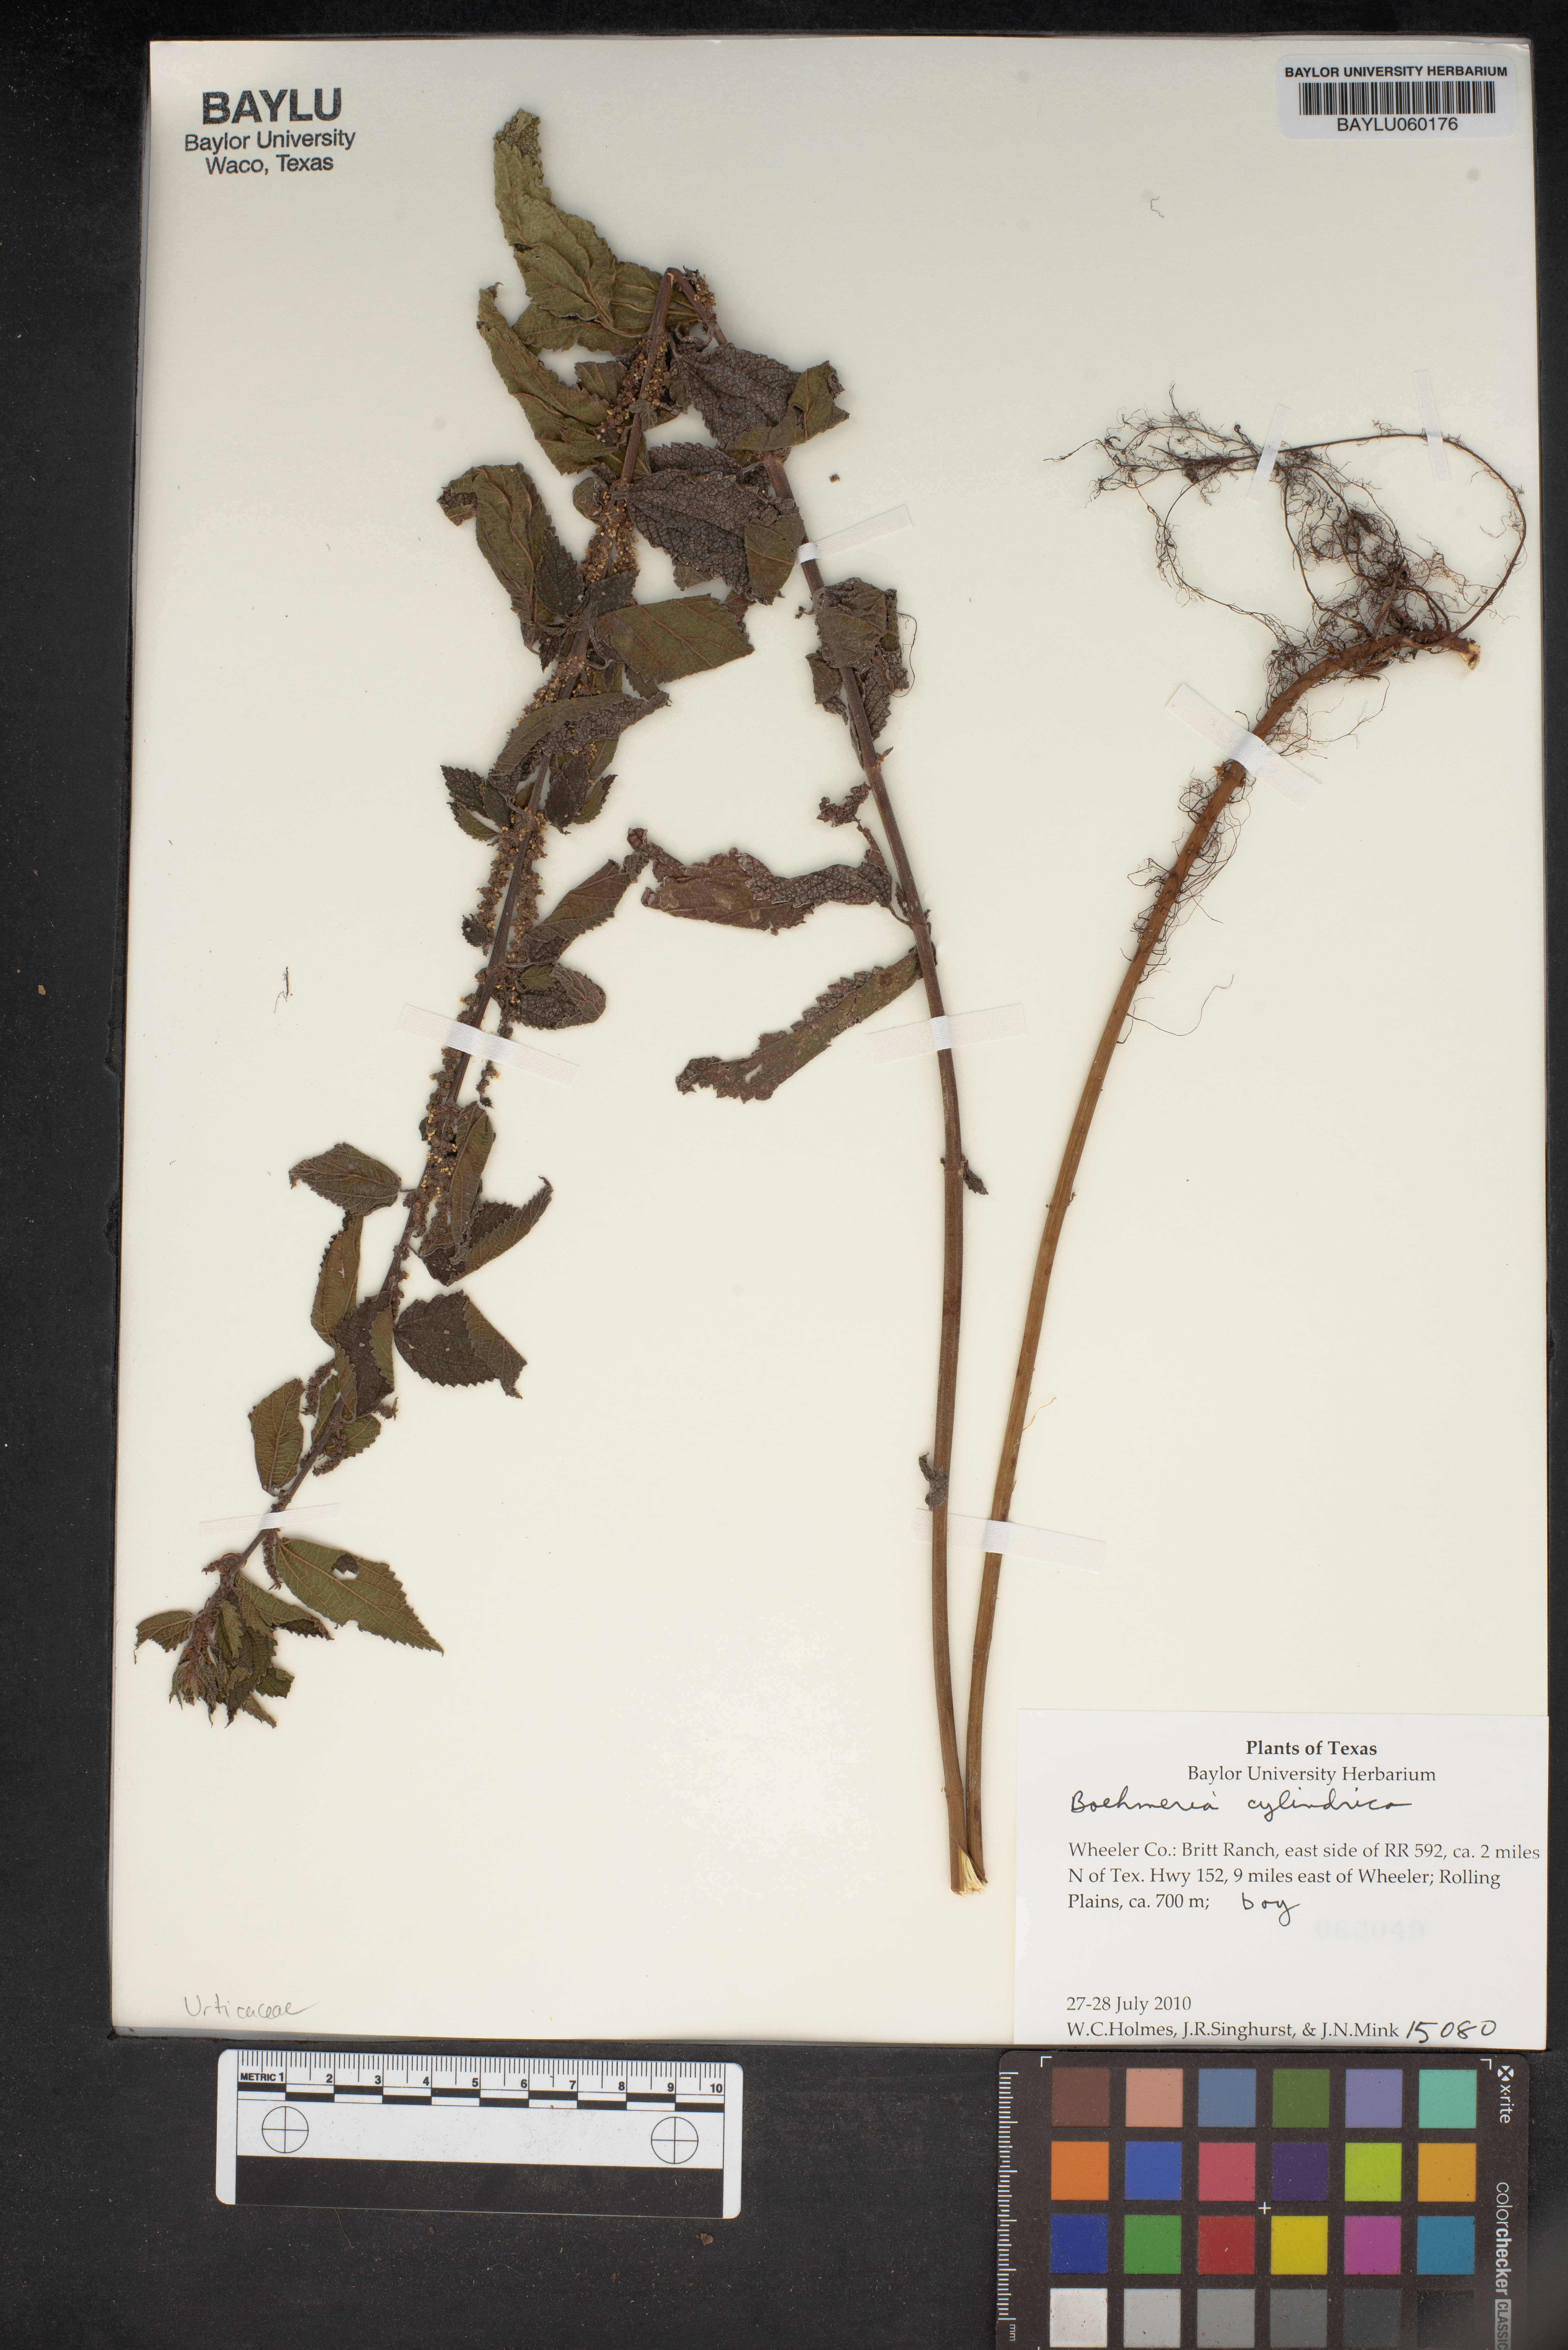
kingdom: Plantae
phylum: Tracheophyta
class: Magnoliopsida
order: Rosales
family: Urticaceae
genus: Boehmeria
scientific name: Boehmeria cylindrica
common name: Bog-hemp
